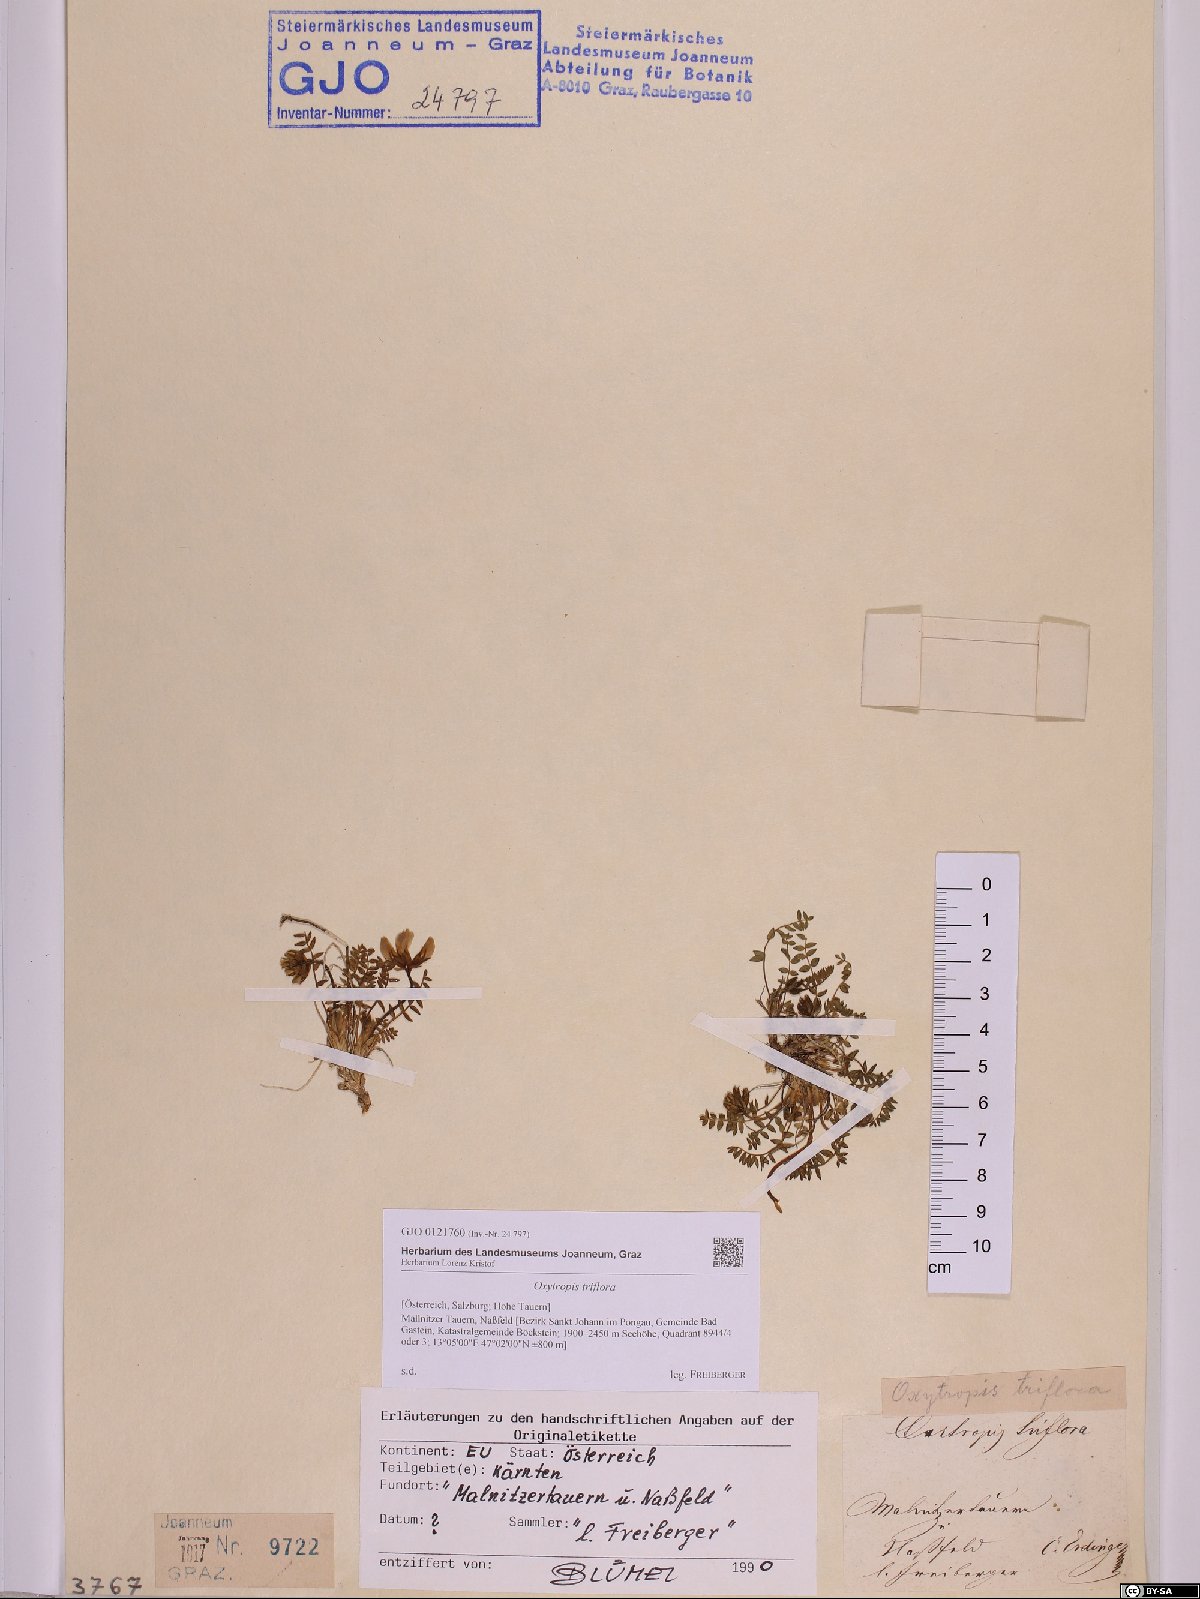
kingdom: Plantae
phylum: Tracheophyta
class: Magnoliopsida
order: Fabales
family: Fabaceae
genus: Oxytropis
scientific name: Oxytropis triflora
